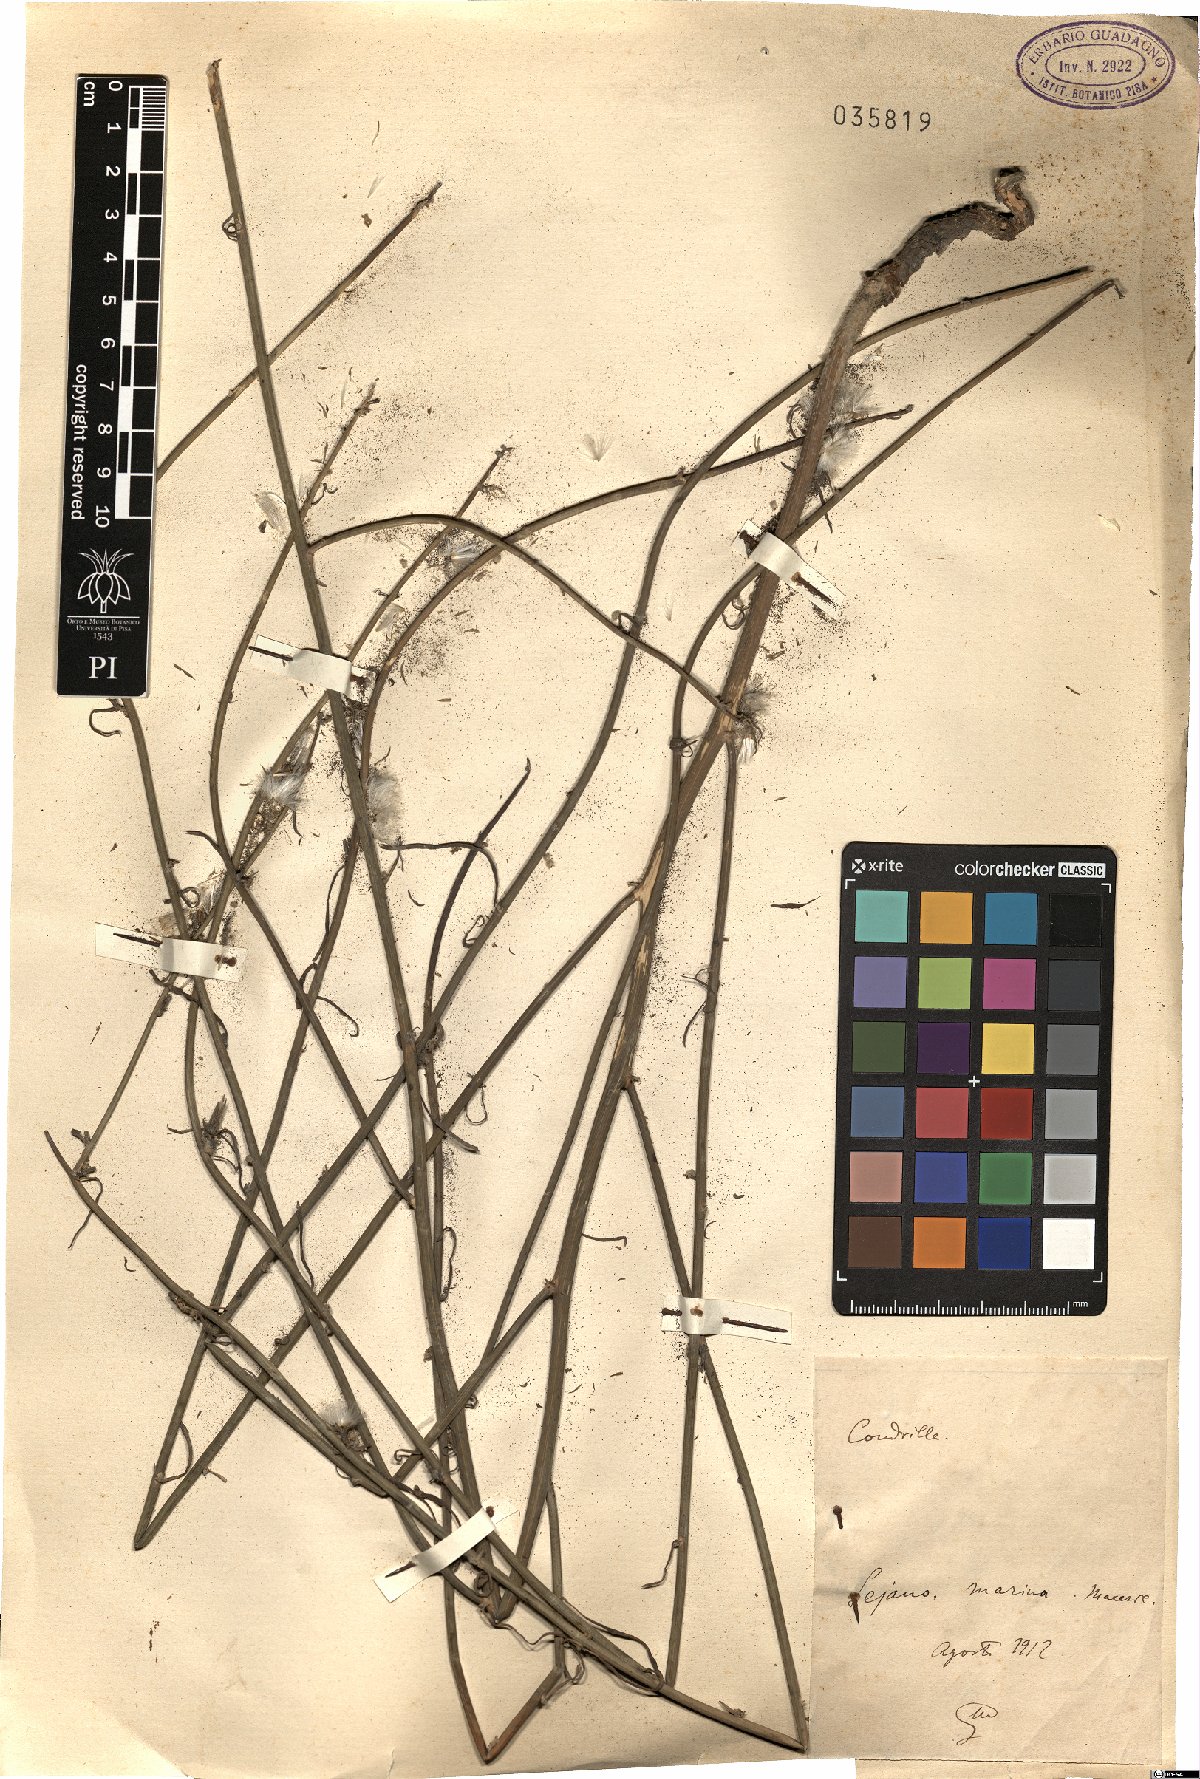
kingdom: Plantae
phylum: Tracheophyta
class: Magnoliopsida
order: Asterales
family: Asteraceae
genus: Chondrilla
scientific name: Chondrilla
